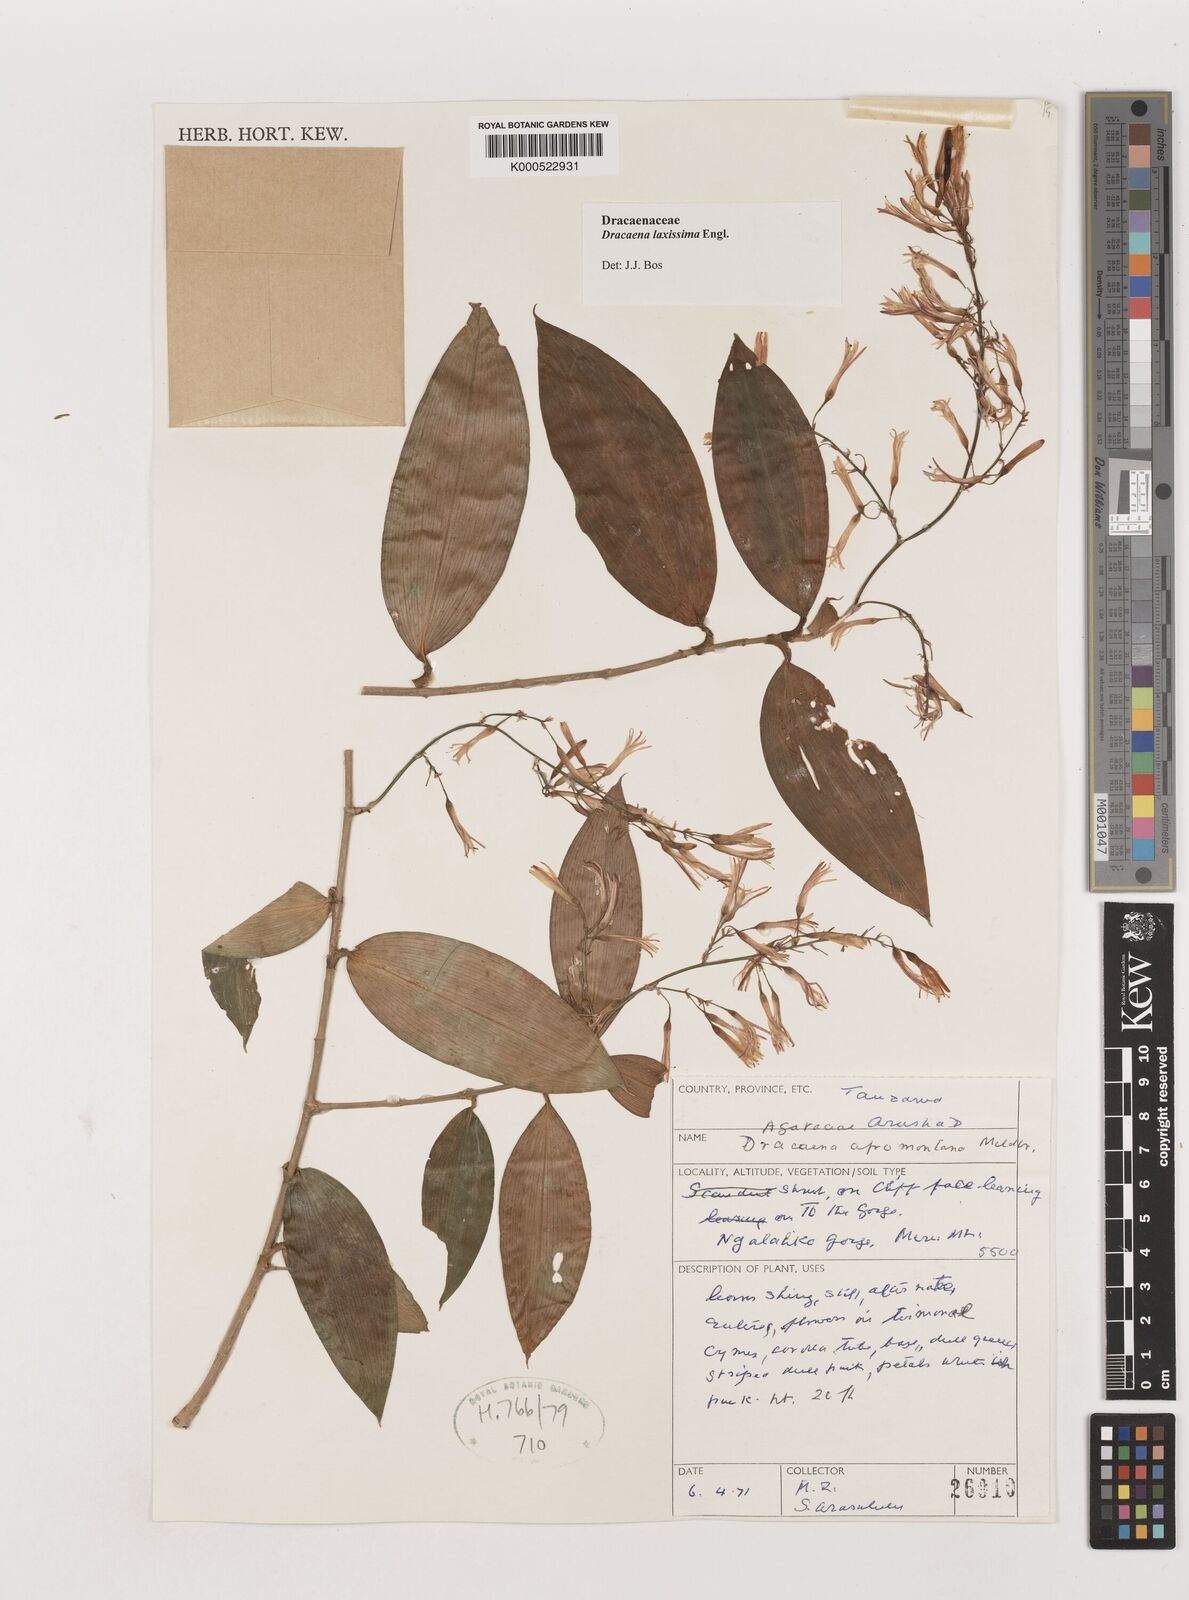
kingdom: Plantae
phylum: Tracheophyta
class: Liliopsida
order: Asparagales
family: Asparagaceae
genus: Dracaena
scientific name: Dracaena laxissima
